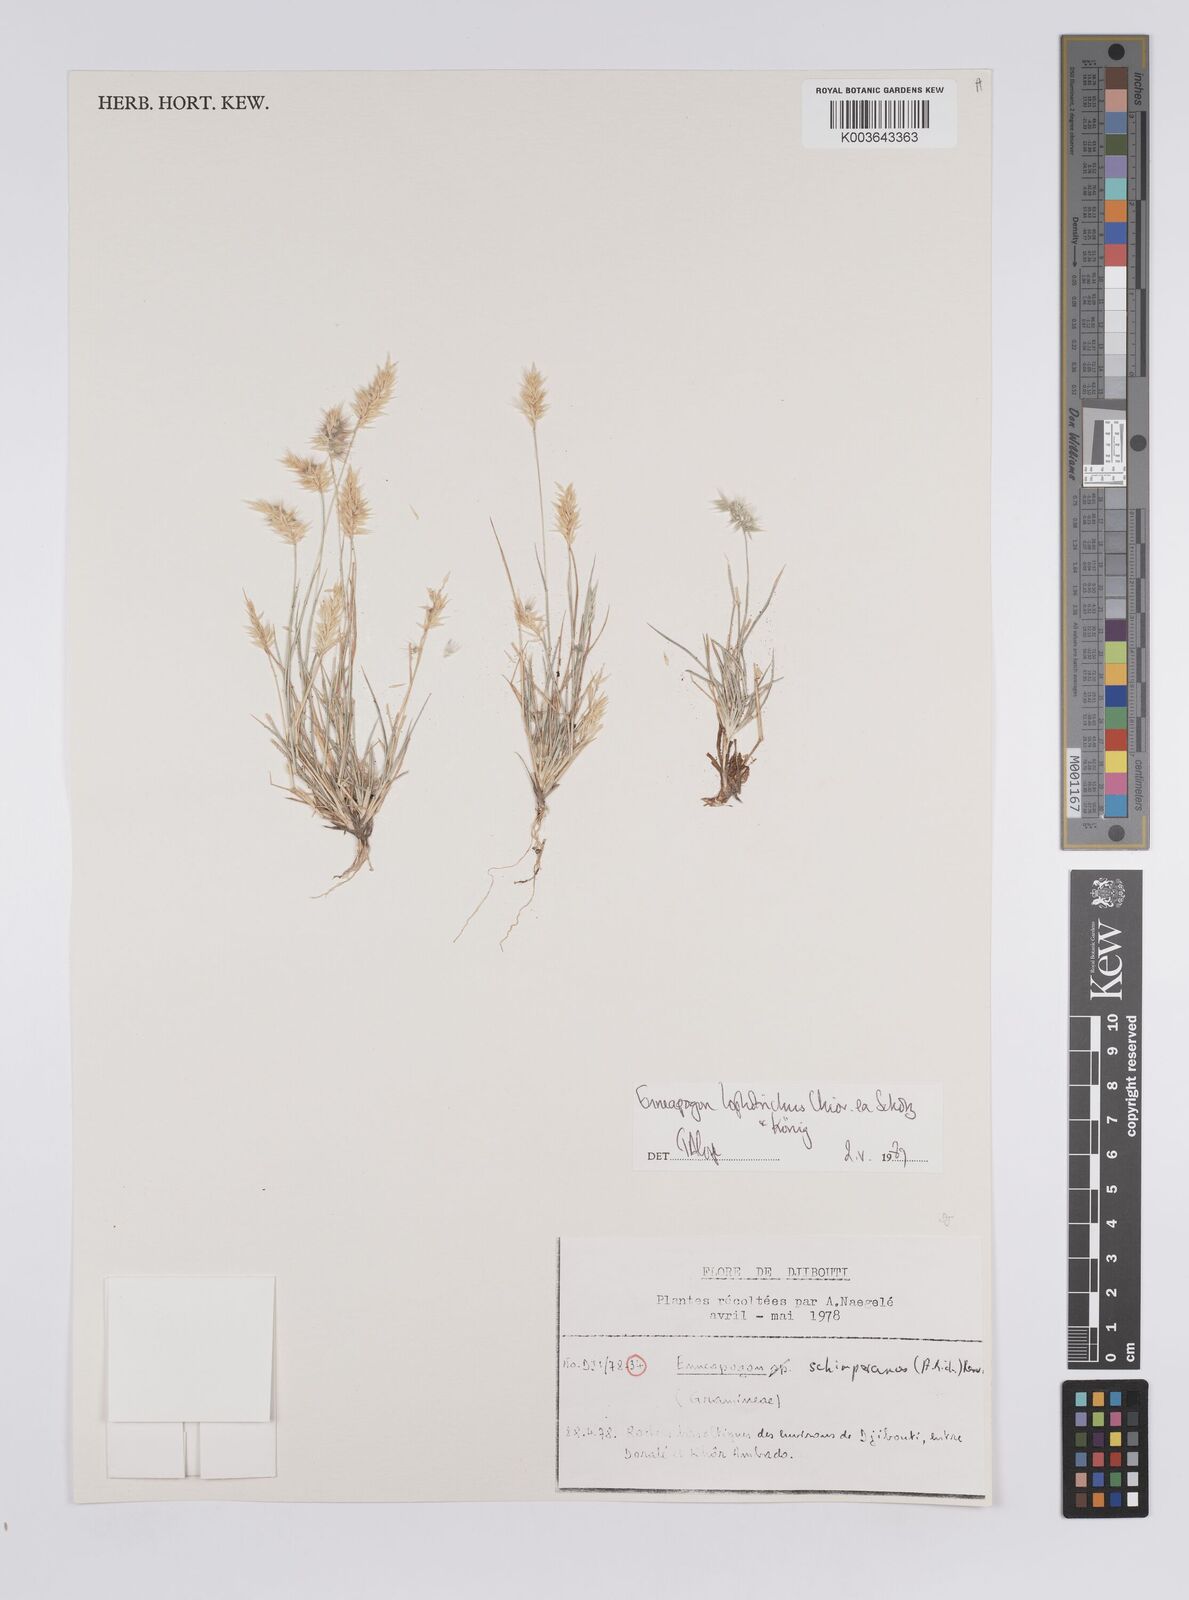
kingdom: Plantae
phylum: Tracheophyta
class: Liliopsida
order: Poales
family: Poaceae
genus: Enneapogon
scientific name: Enneapogon lophotrichus
